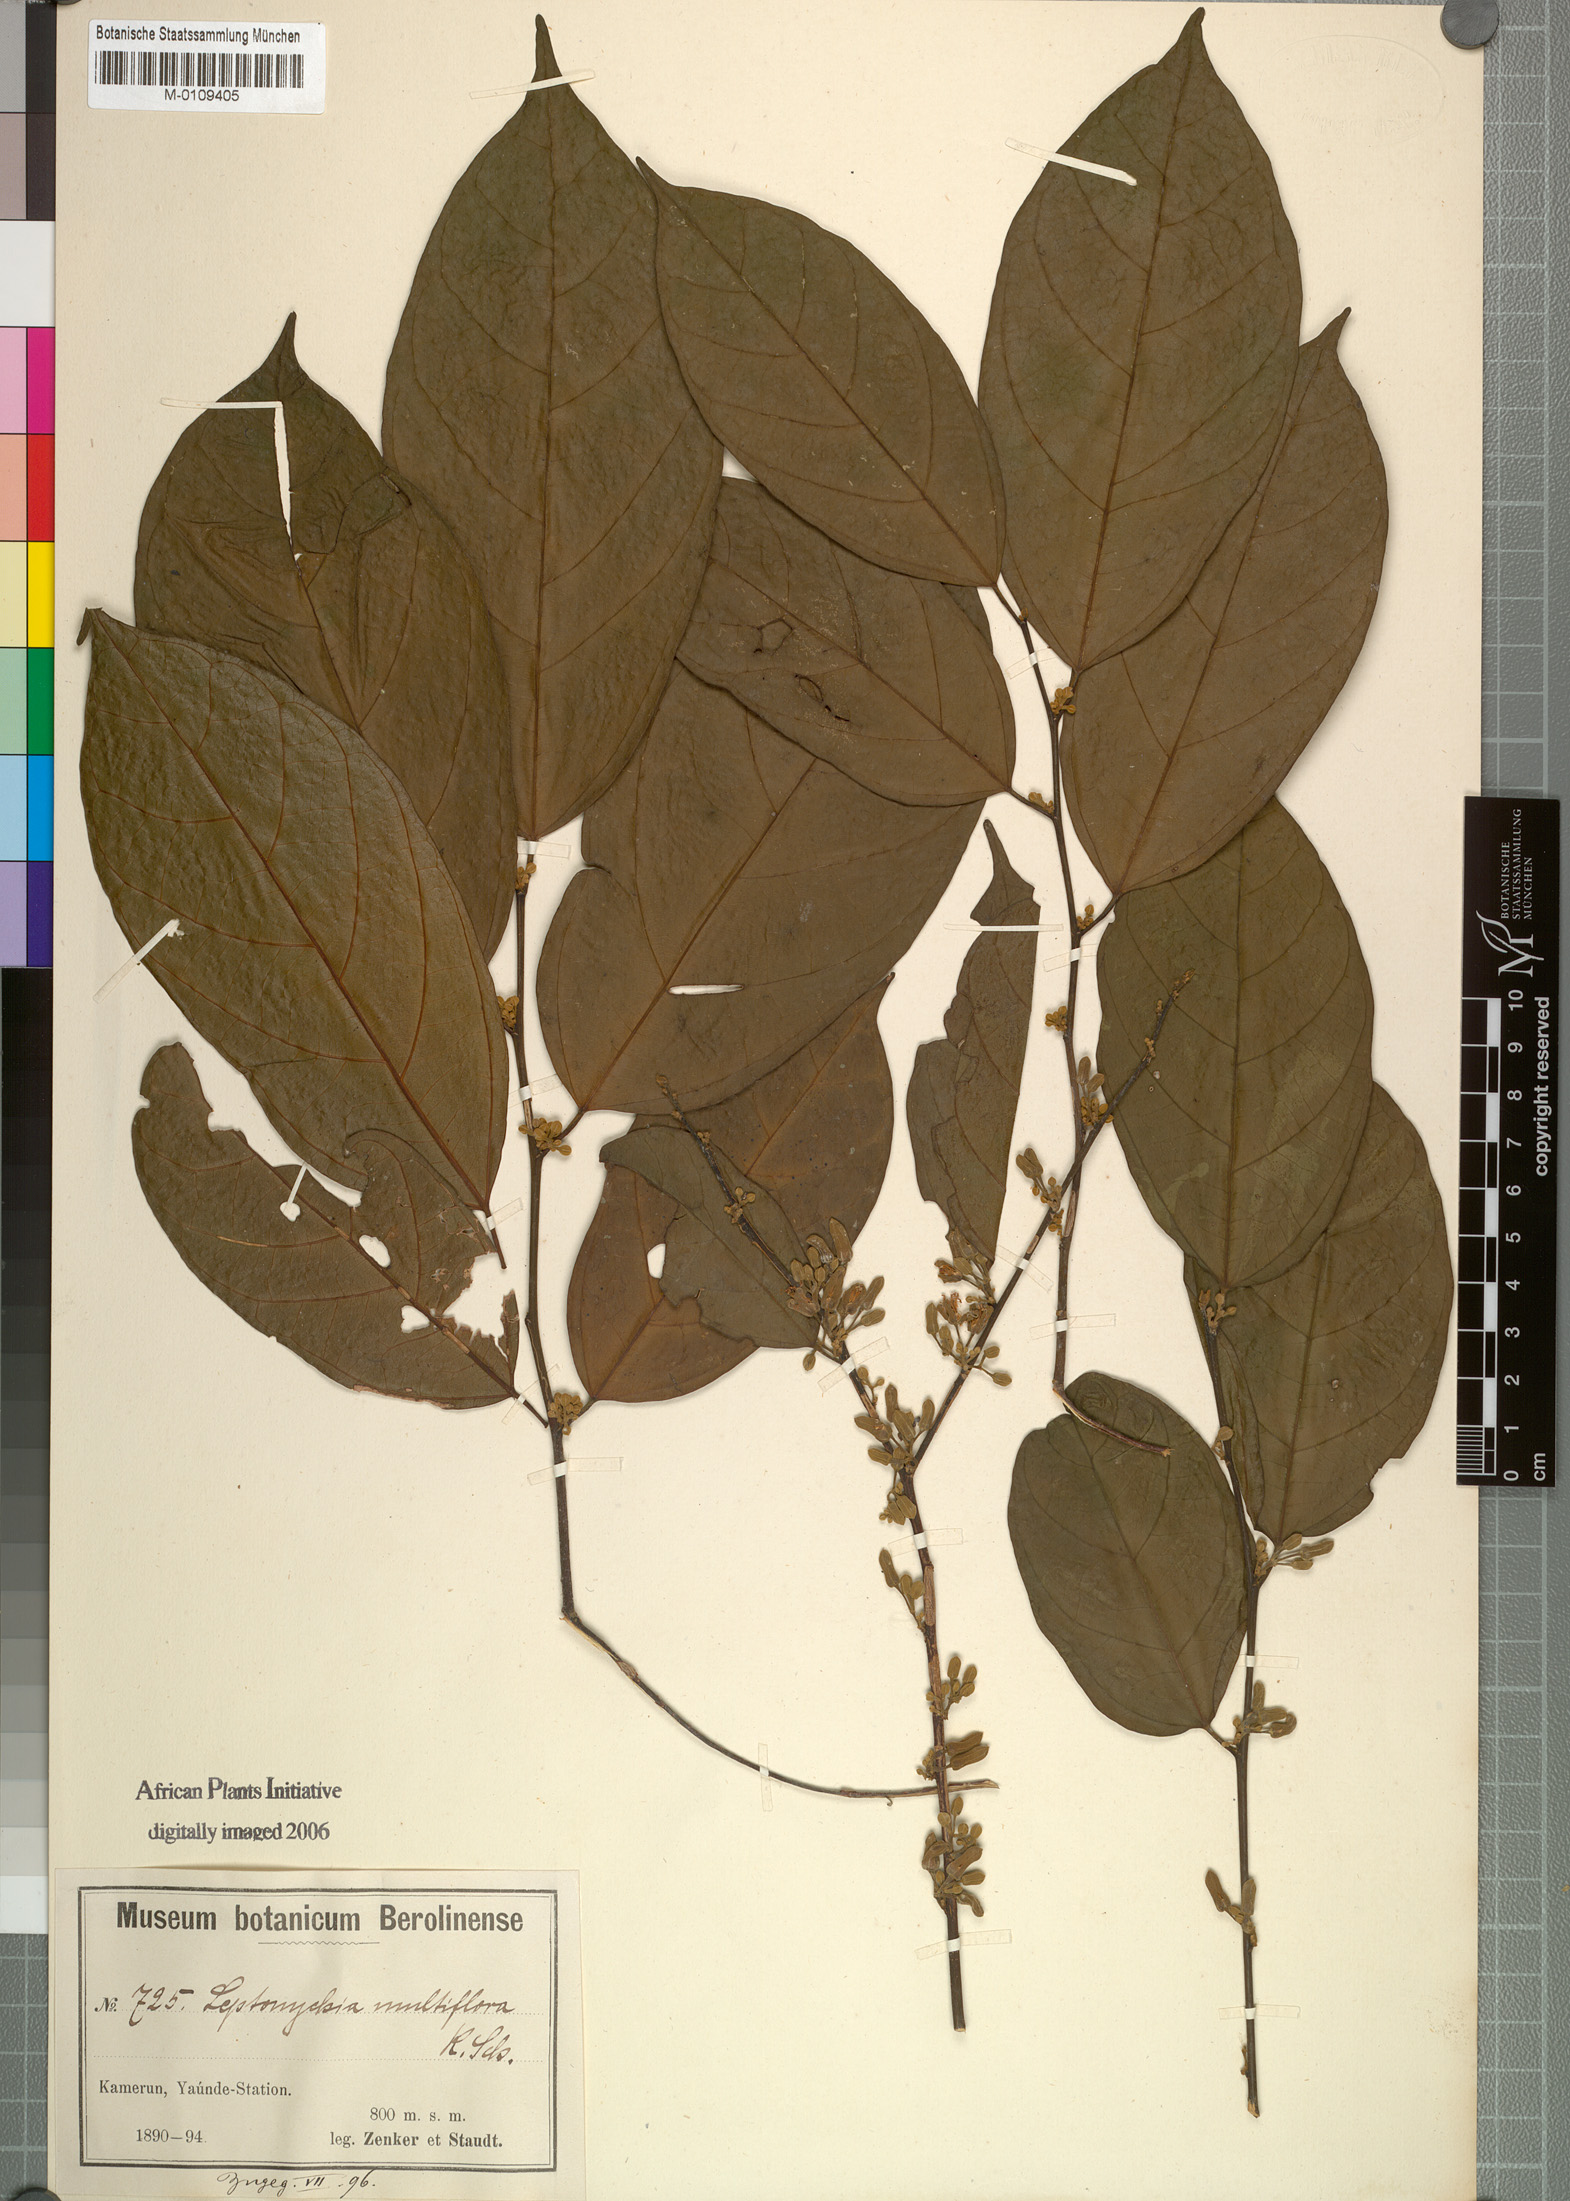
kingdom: Plantae
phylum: Tracheophyta
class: Magnoliopsida
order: Malvales
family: Malvaceae
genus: Leptonychia
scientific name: Leptonychia multiflora
